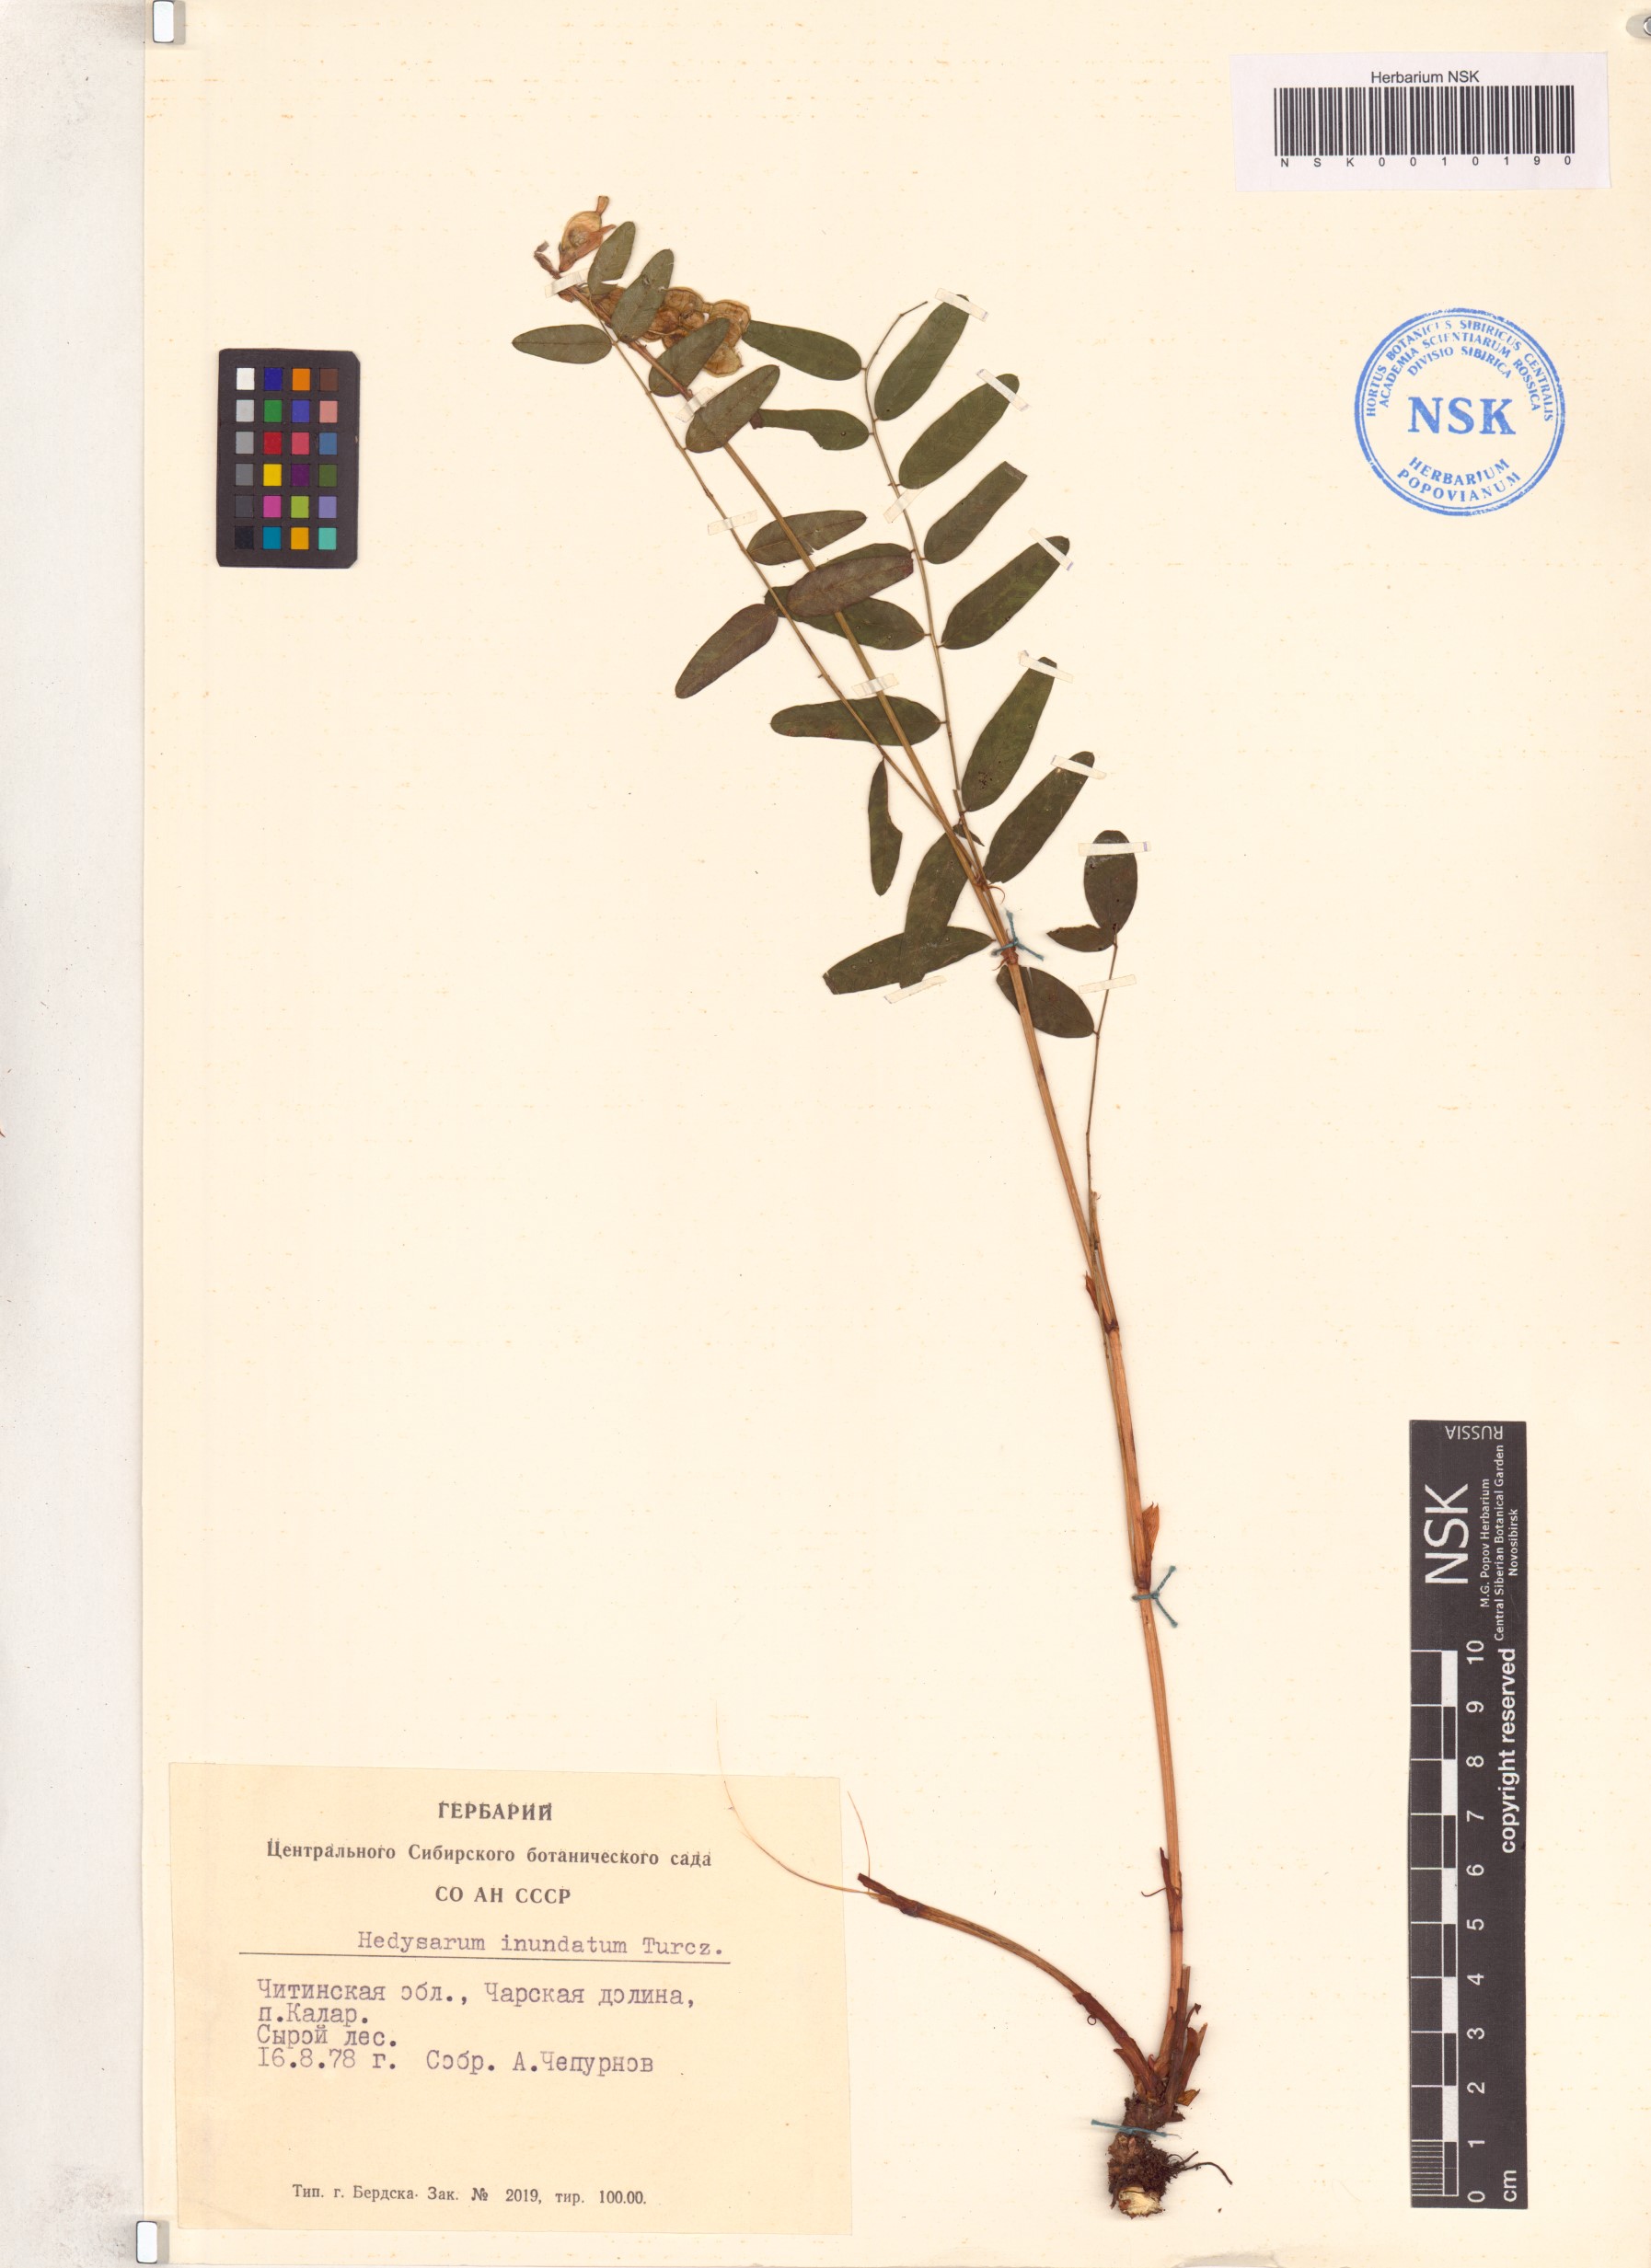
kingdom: Plantae
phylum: Tracheophyta
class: Magnoliopsida
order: Fabales
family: Fabaceae
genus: Hedysarum
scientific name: Hedysarum inundatum
